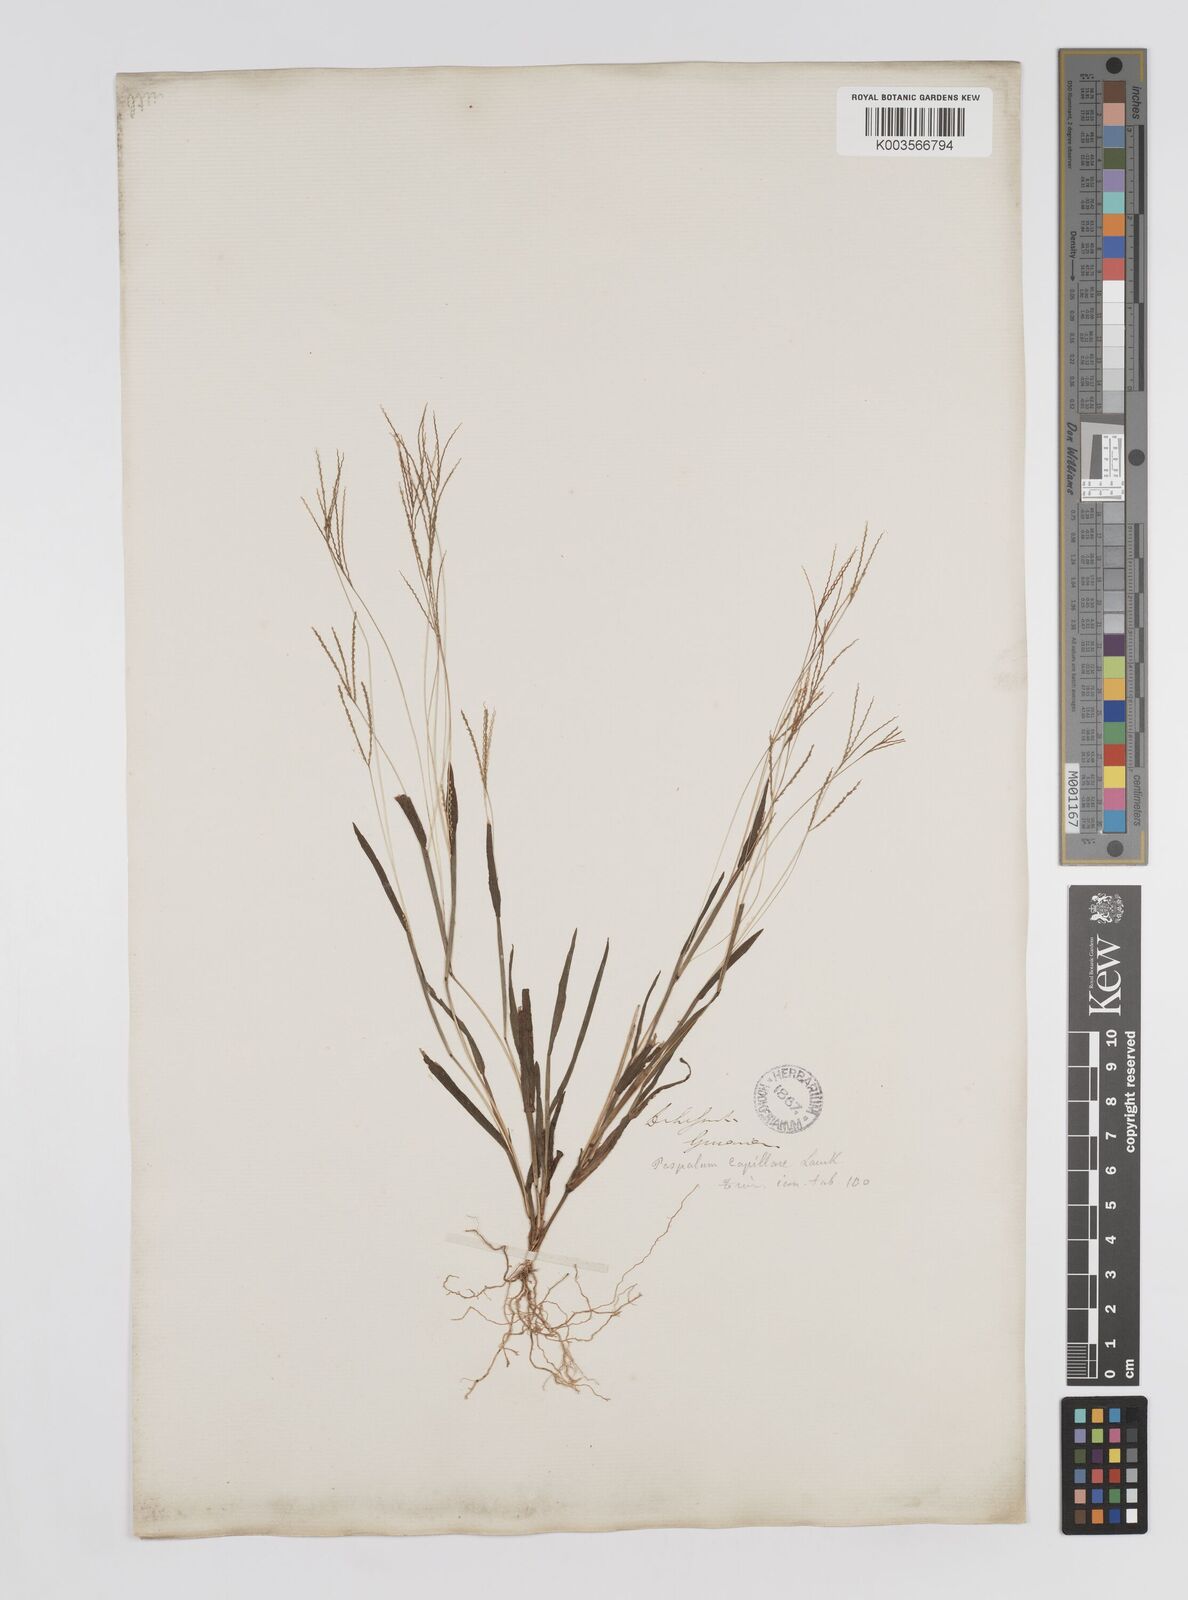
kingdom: Plantae
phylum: Tracheophyta
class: Liliopsida
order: Poales
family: Poaceae
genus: Axonopus
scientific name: Axonopus capillaris
